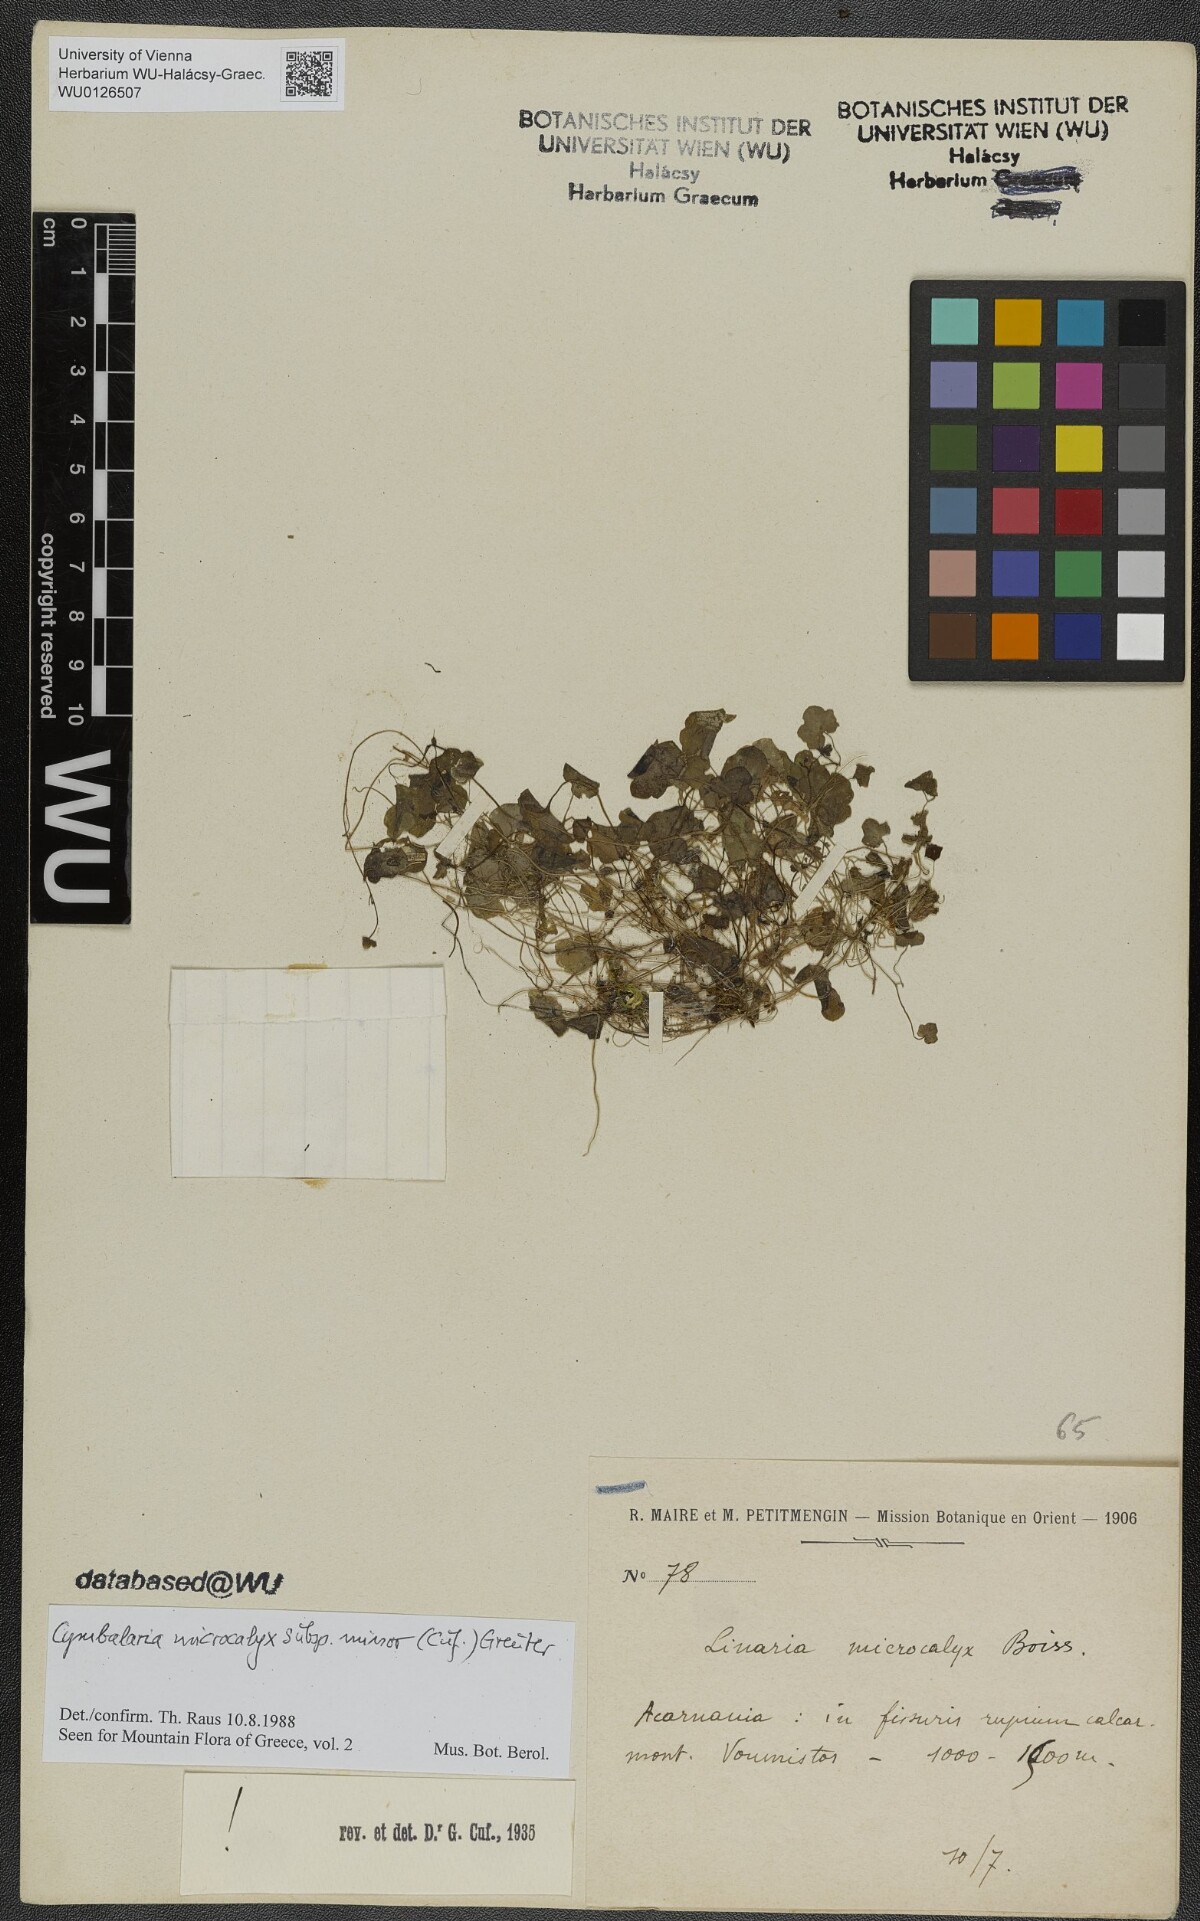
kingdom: Plantae
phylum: Tracheophyta
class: Magnoliopsida
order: Lamiales
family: Plantaginaceae
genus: Cymbalaria
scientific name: Cymbalaria minor
